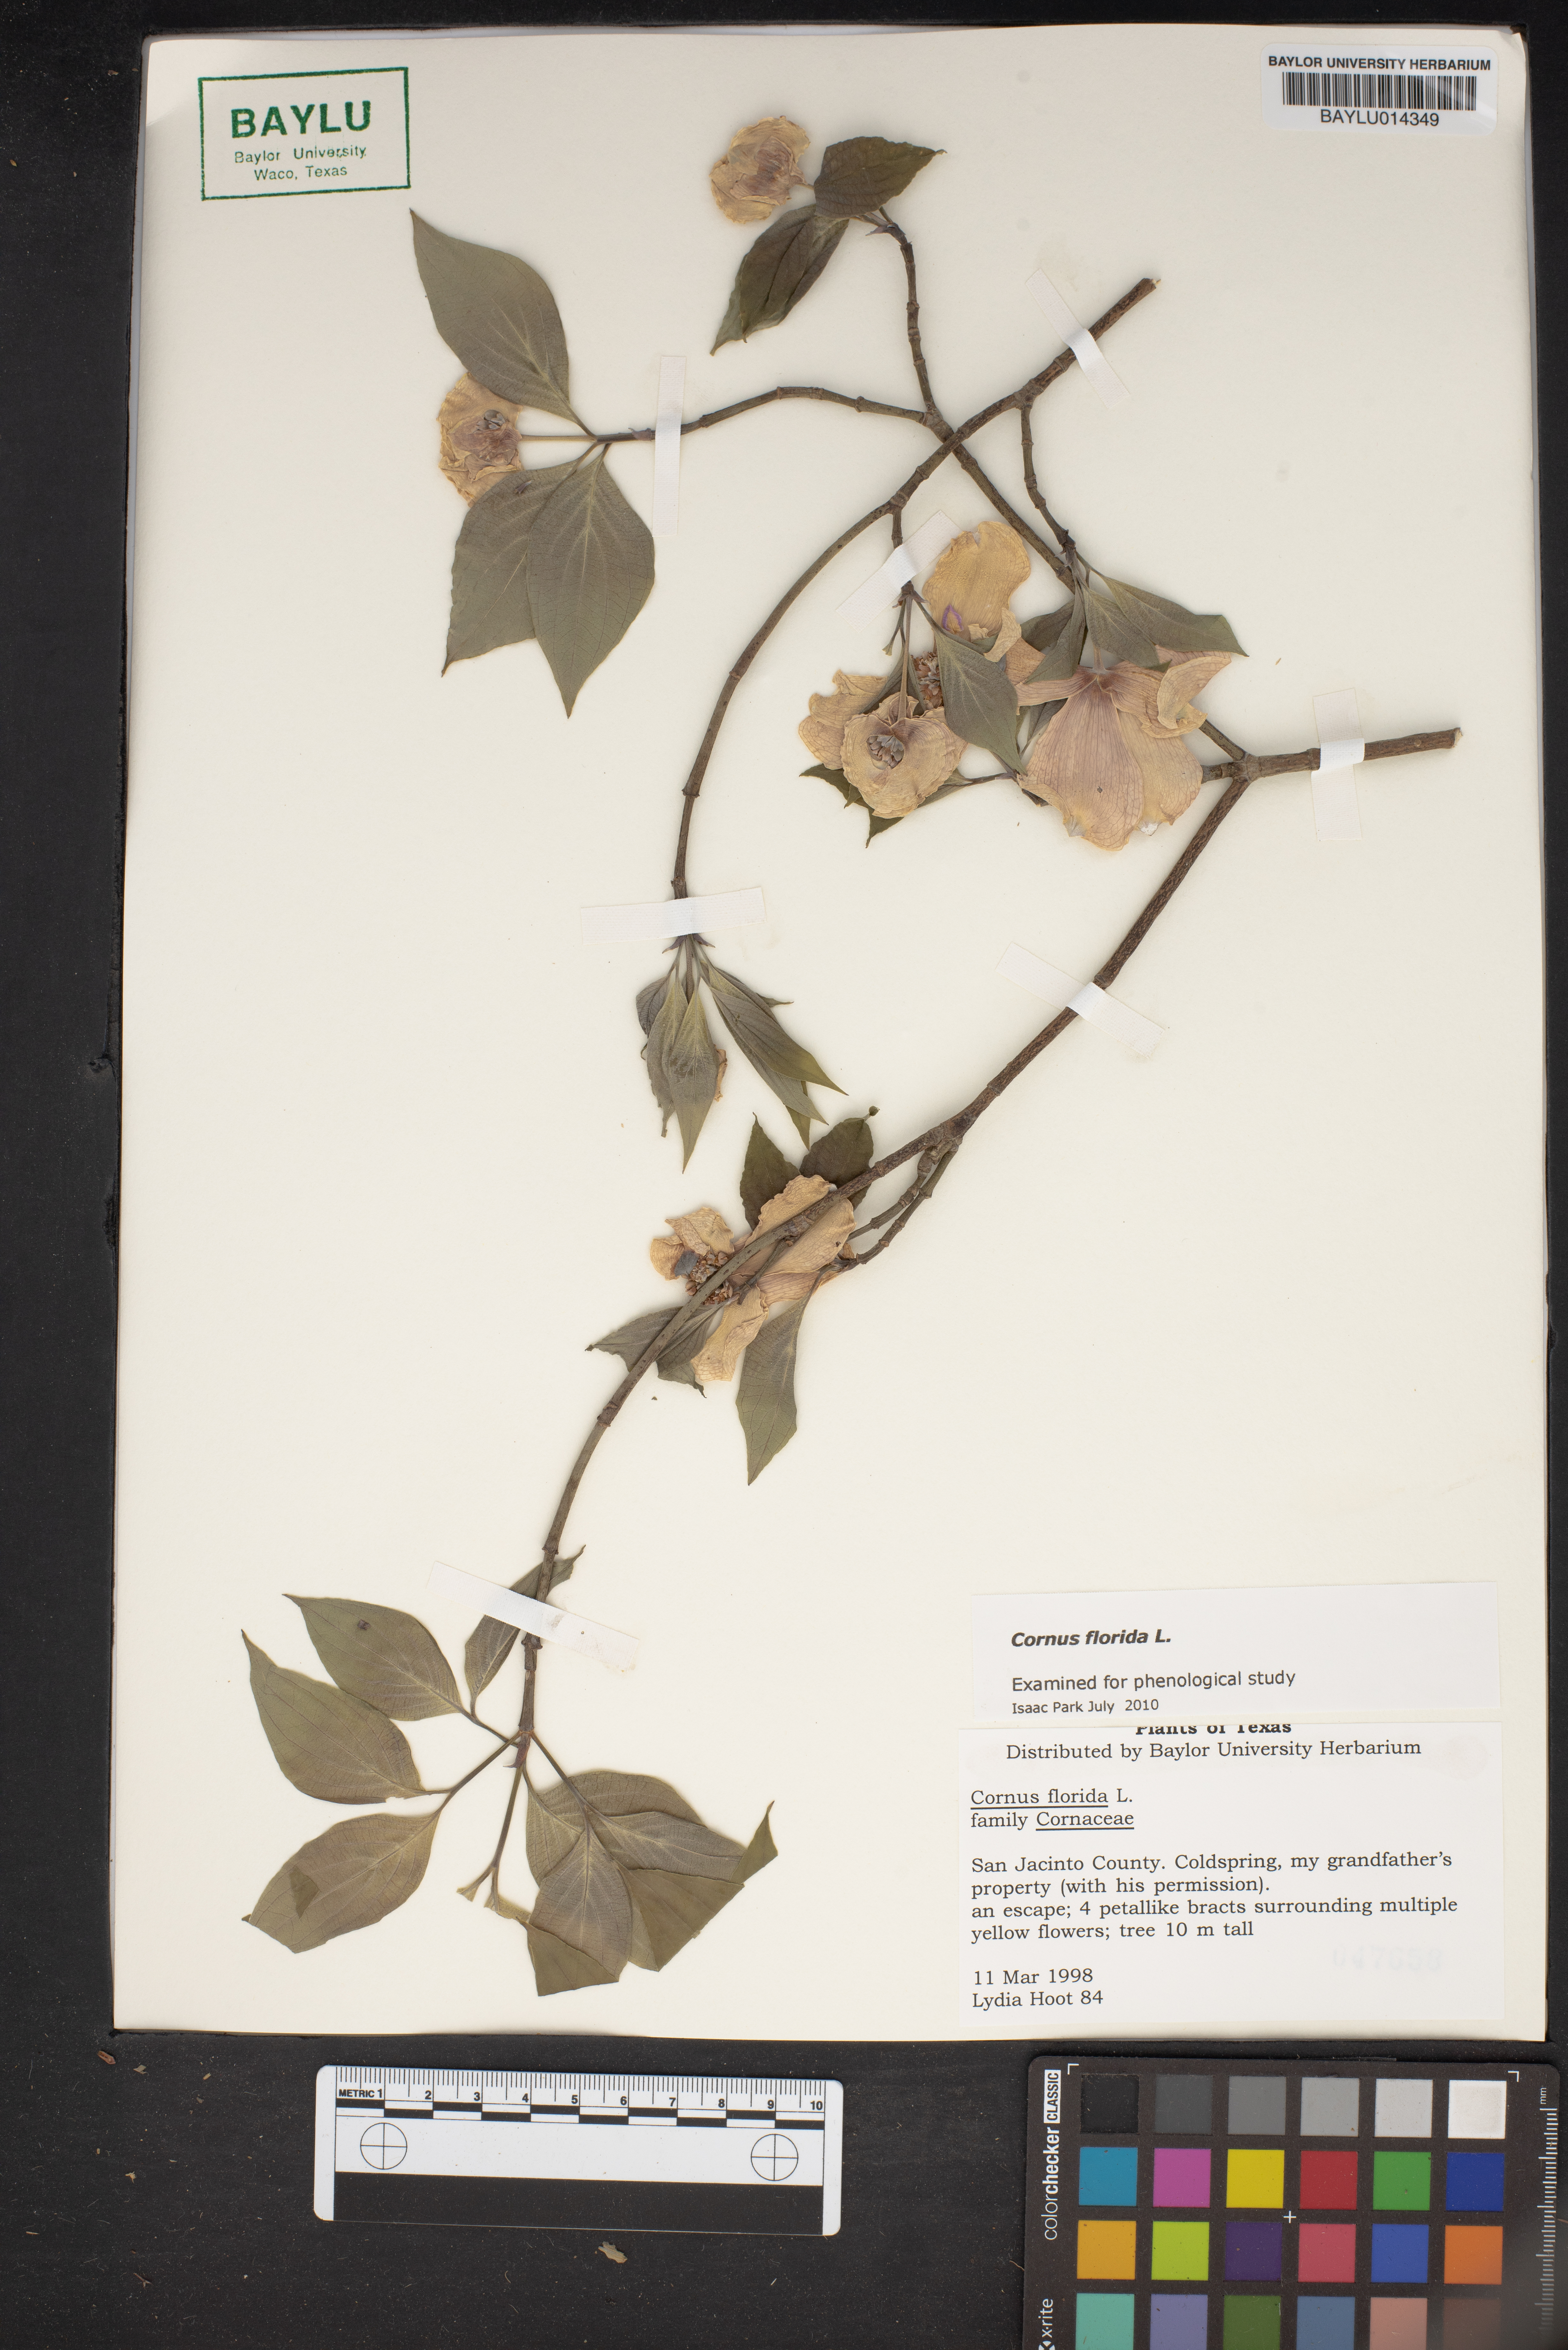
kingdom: Plantae
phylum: Tracheophyta
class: Magnoliopsida
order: Cornales
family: Cornaceae
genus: Cornus
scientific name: Cornus florida
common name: Flowering dogwood
